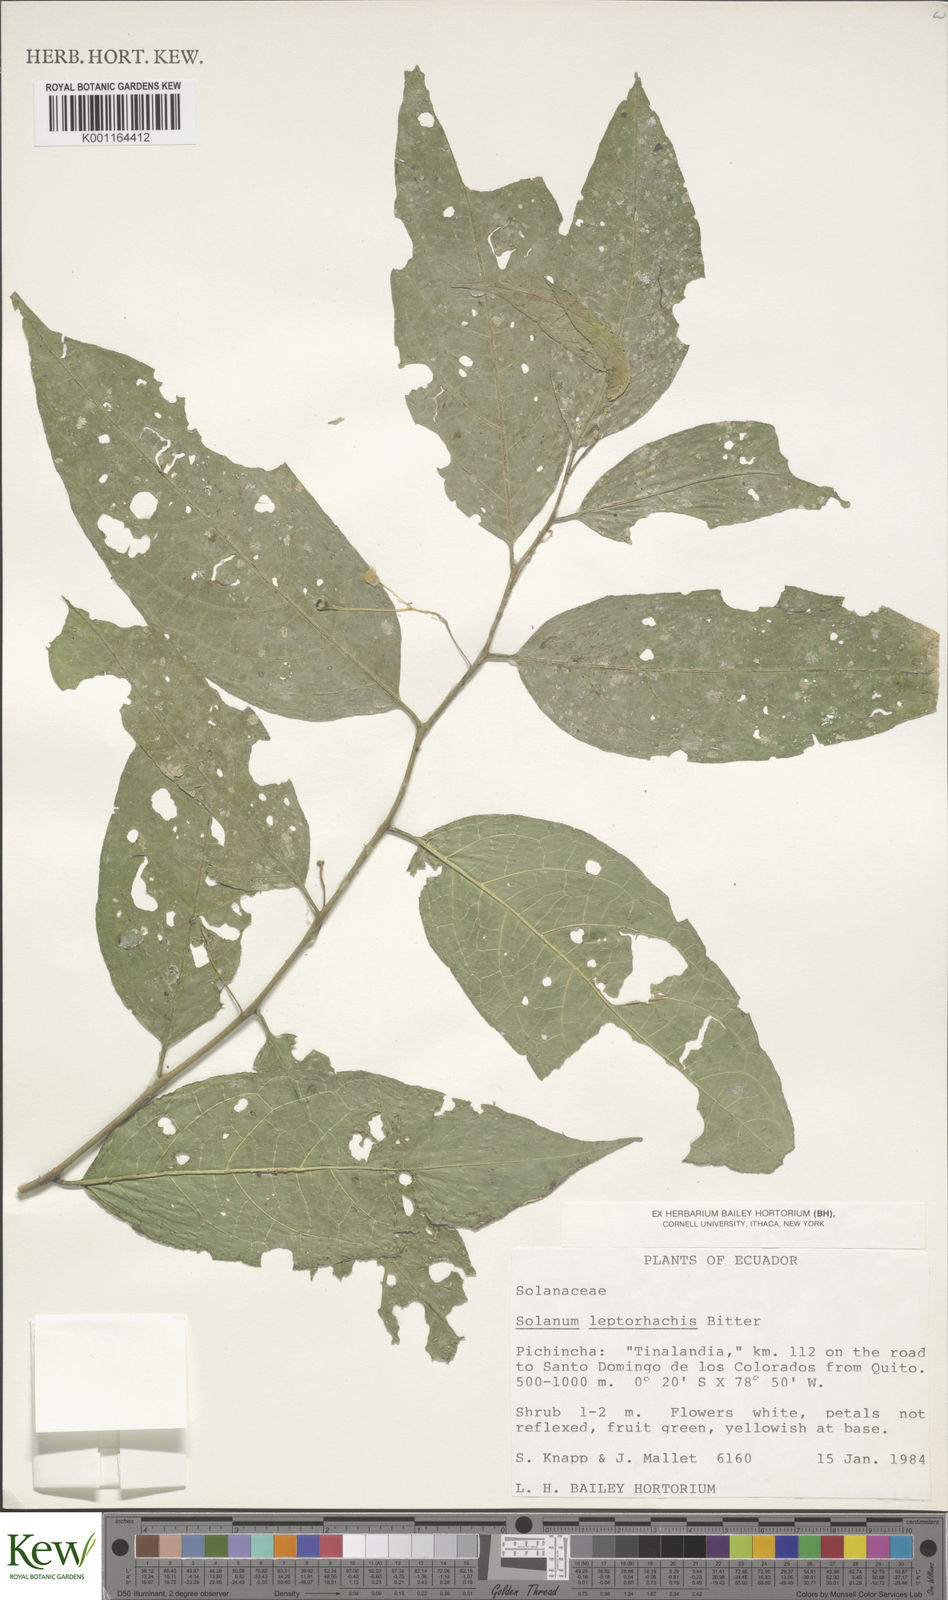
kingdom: Plantae
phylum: Tracheophyta
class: Magnoliopsida
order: Solanales
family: Solanaceae
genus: Solanum
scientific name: Solanum leptorhachis
